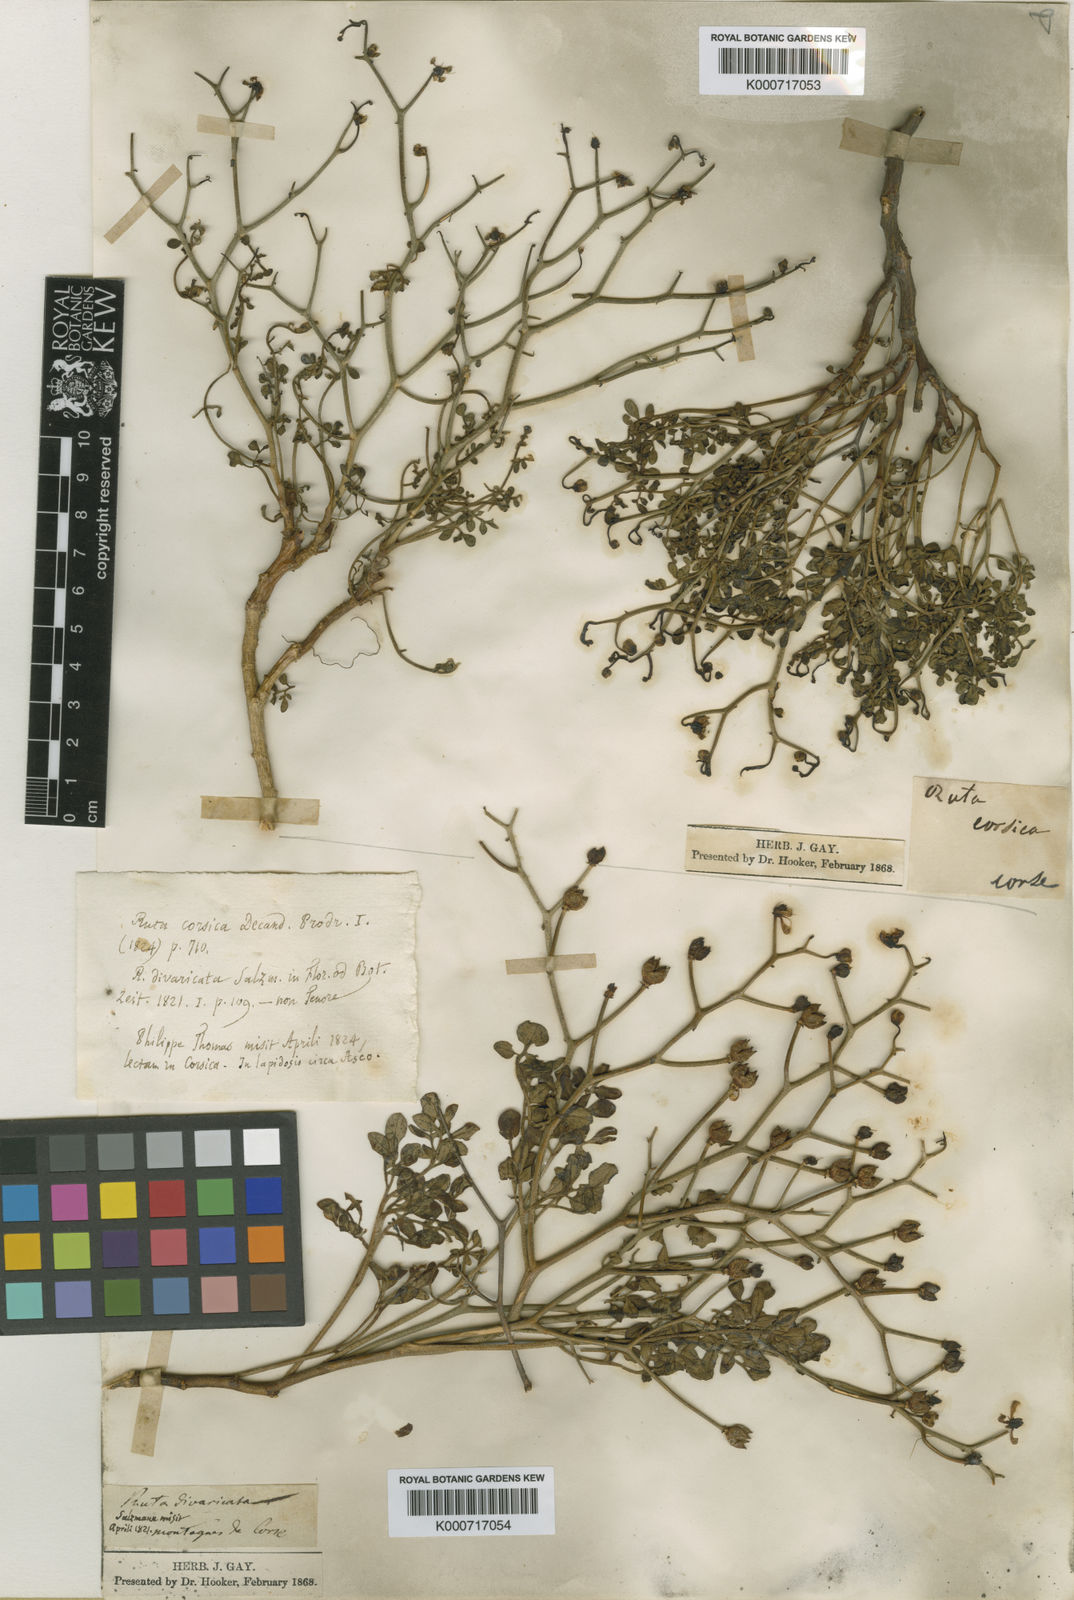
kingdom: Plantae
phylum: Tracheophyta
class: Magnoliopsida
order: Sapindales
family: Rutaceae
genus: Ruta
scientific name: Ruta corsica
